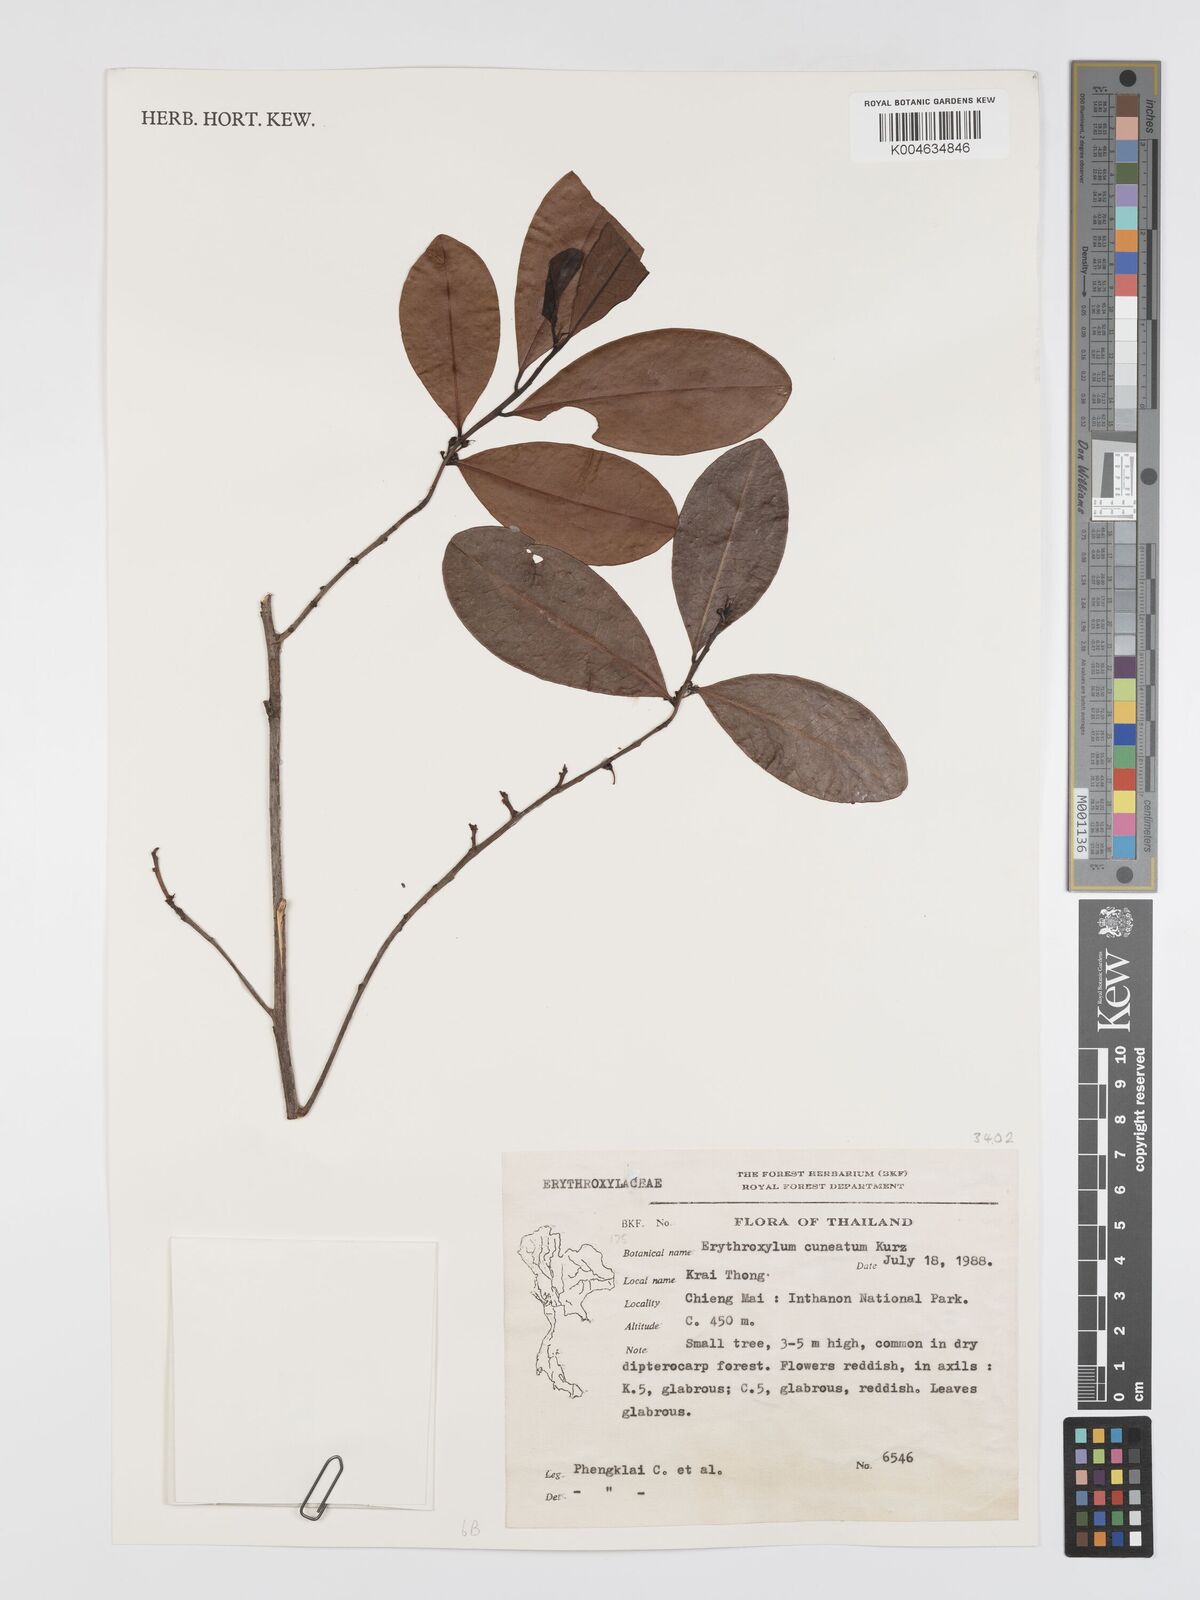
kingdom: Plantae
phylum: Tracheophyta
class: Magnoliopsida
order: Malpighiales
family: Erythroxylaceae
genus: Erythroxylum
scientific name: Erythroxylum cuneatum
